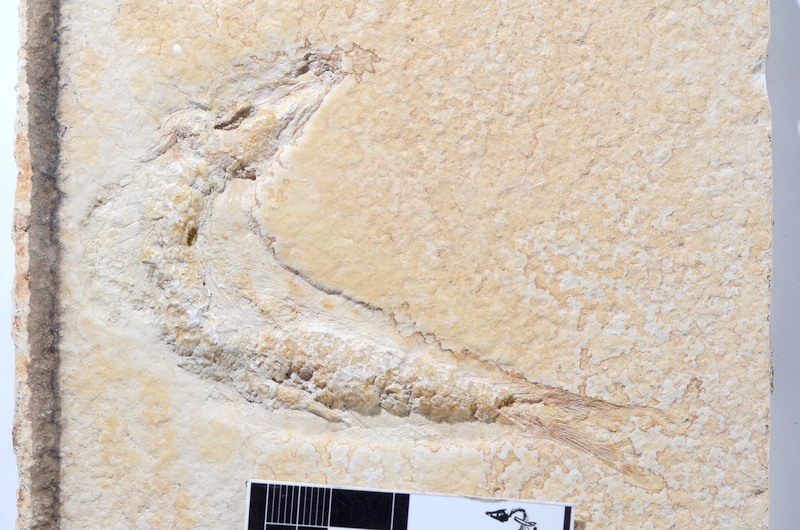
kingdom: Animalia
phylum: Chordata
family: Ascalaboidae
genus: Tharsis
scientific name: Tharsis dubius
